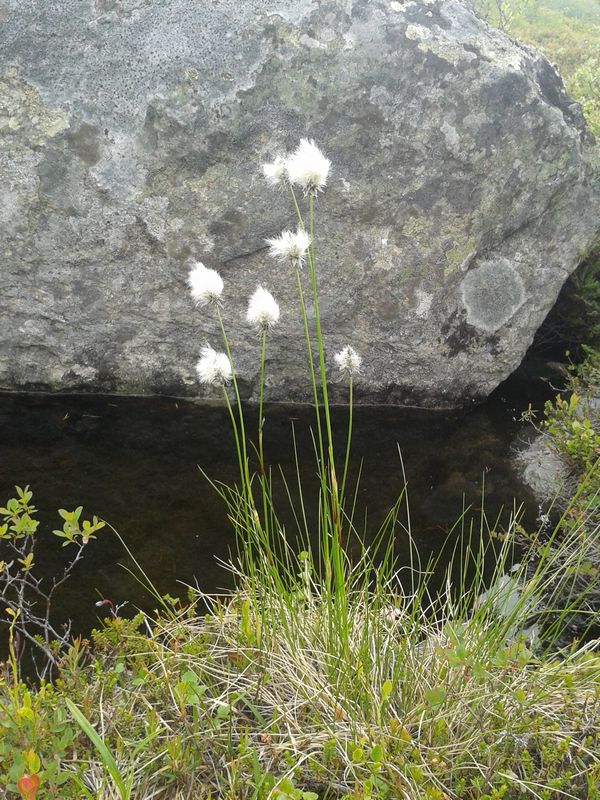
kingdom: Plantae
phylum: Tracheophyta
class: Liliopsida
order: Poales
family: Cyperaceae
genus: Eriophorum
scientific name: Eriophorum vaginatum
